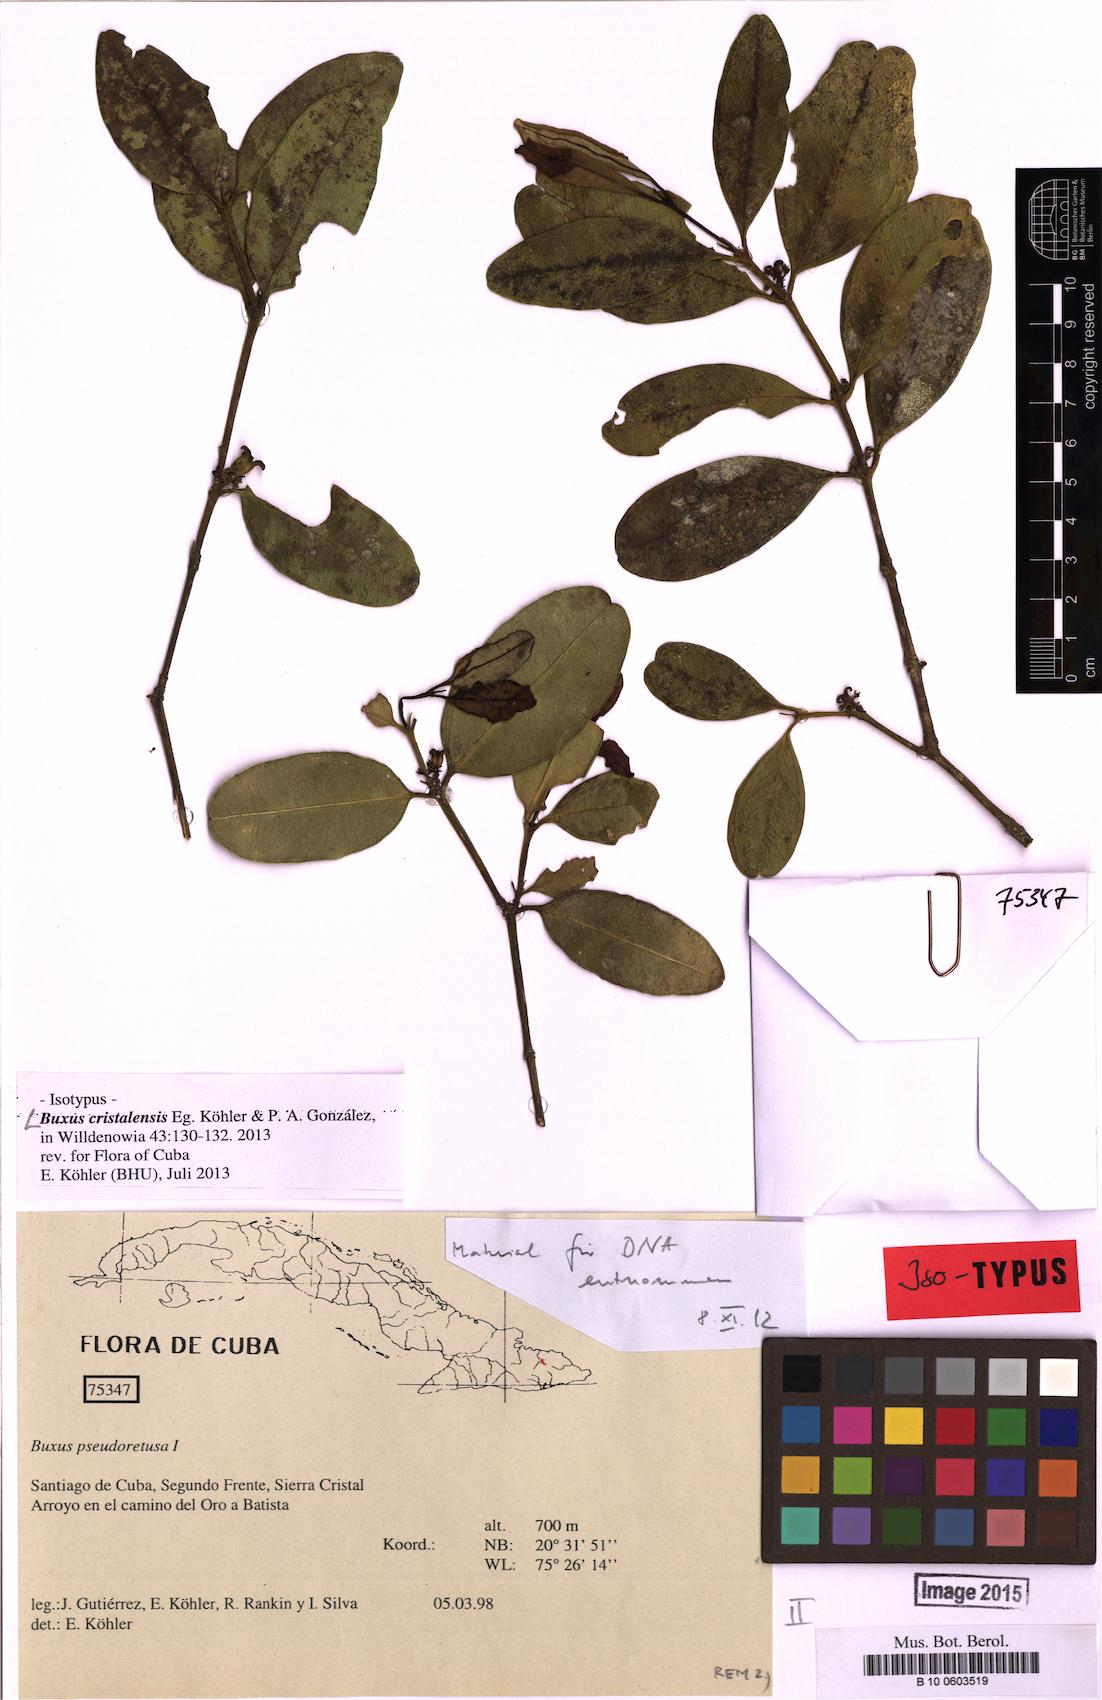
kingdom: Plantae
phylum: Tracheophyta
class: Magnoliopsida
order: Buxales
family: Buxaceae
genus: Buxus
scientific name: Buxus cristalensis
